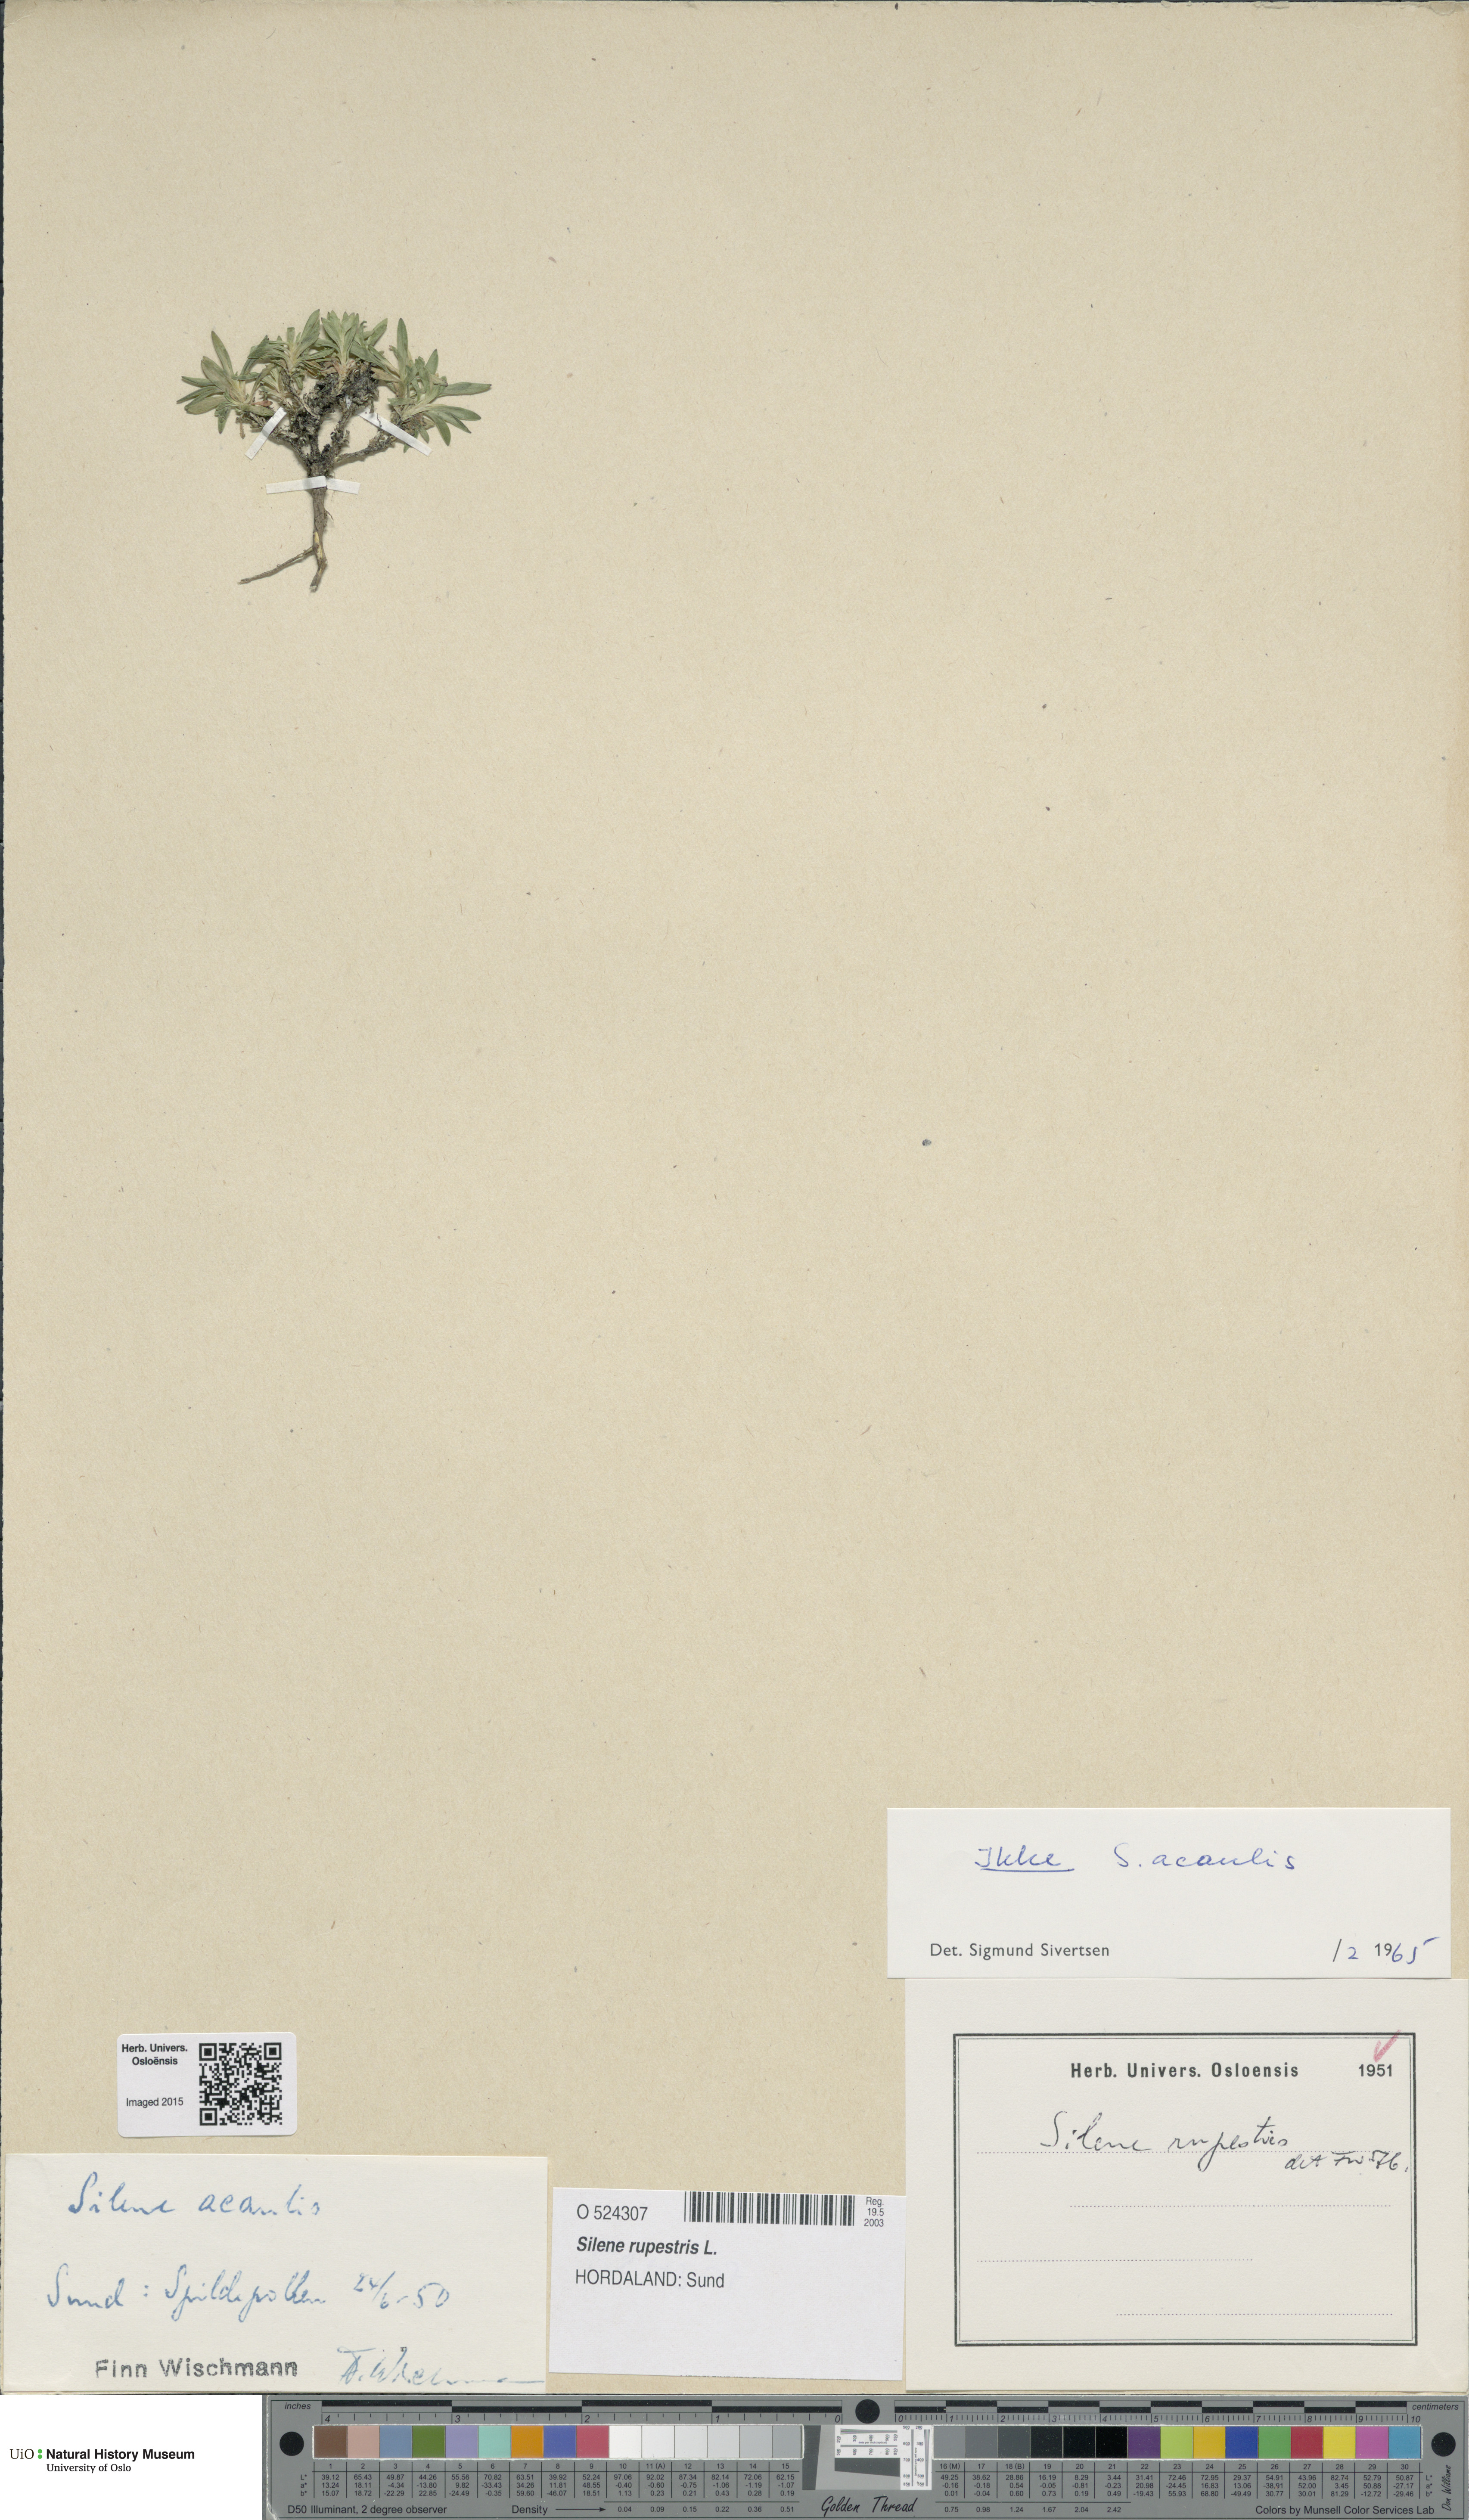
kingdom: Plantae
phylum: Tracheophyta
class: Magnoliopsida
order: Caryophyllales
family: Caryophyllaceae
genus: Atocion
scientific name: Atocion rupestre
